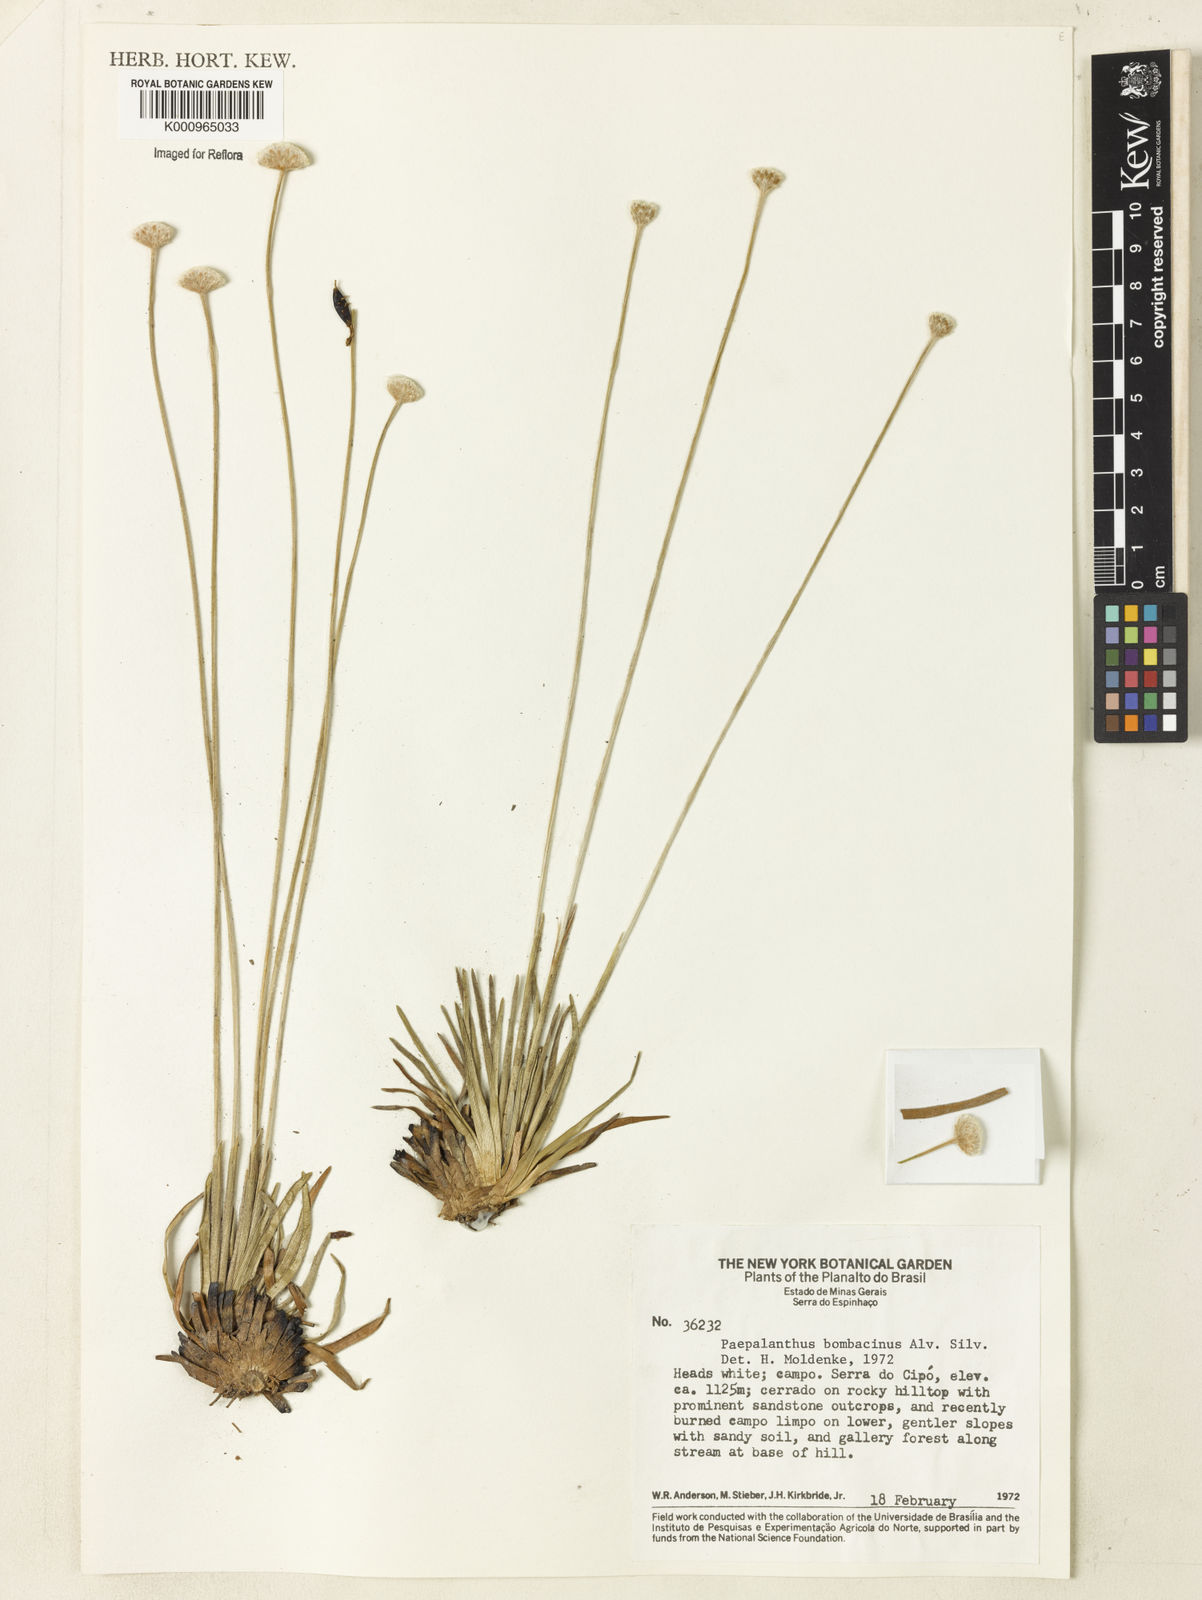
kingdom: Plantae
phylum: Tracheophyta
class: Liliopsida
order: Poales
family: Eriocaulaceae
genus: Paepalanthus
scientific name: Paepalanthus bombacinus
